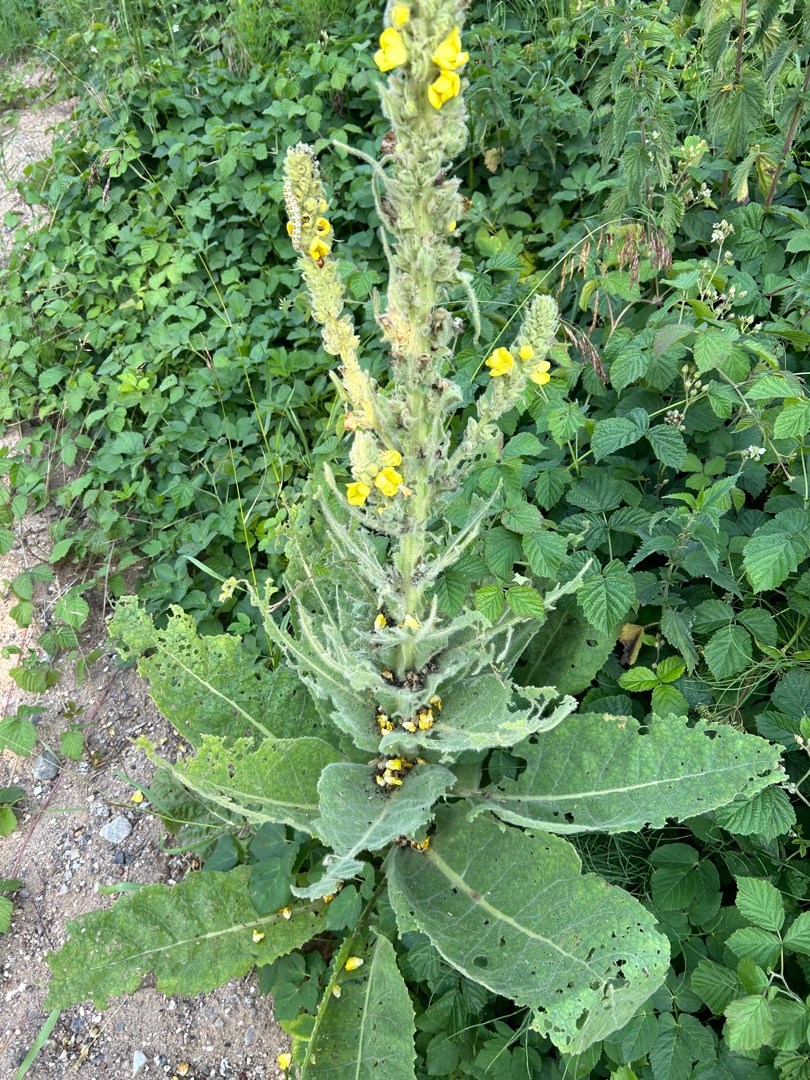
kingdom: Plantae
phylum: Tracheophyta
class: Magnoliopsida
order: Lamiales
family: Scrophulariaceae
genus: Verbascum
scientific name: Verbascum densiflorum
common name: Uldbladet kongelys
